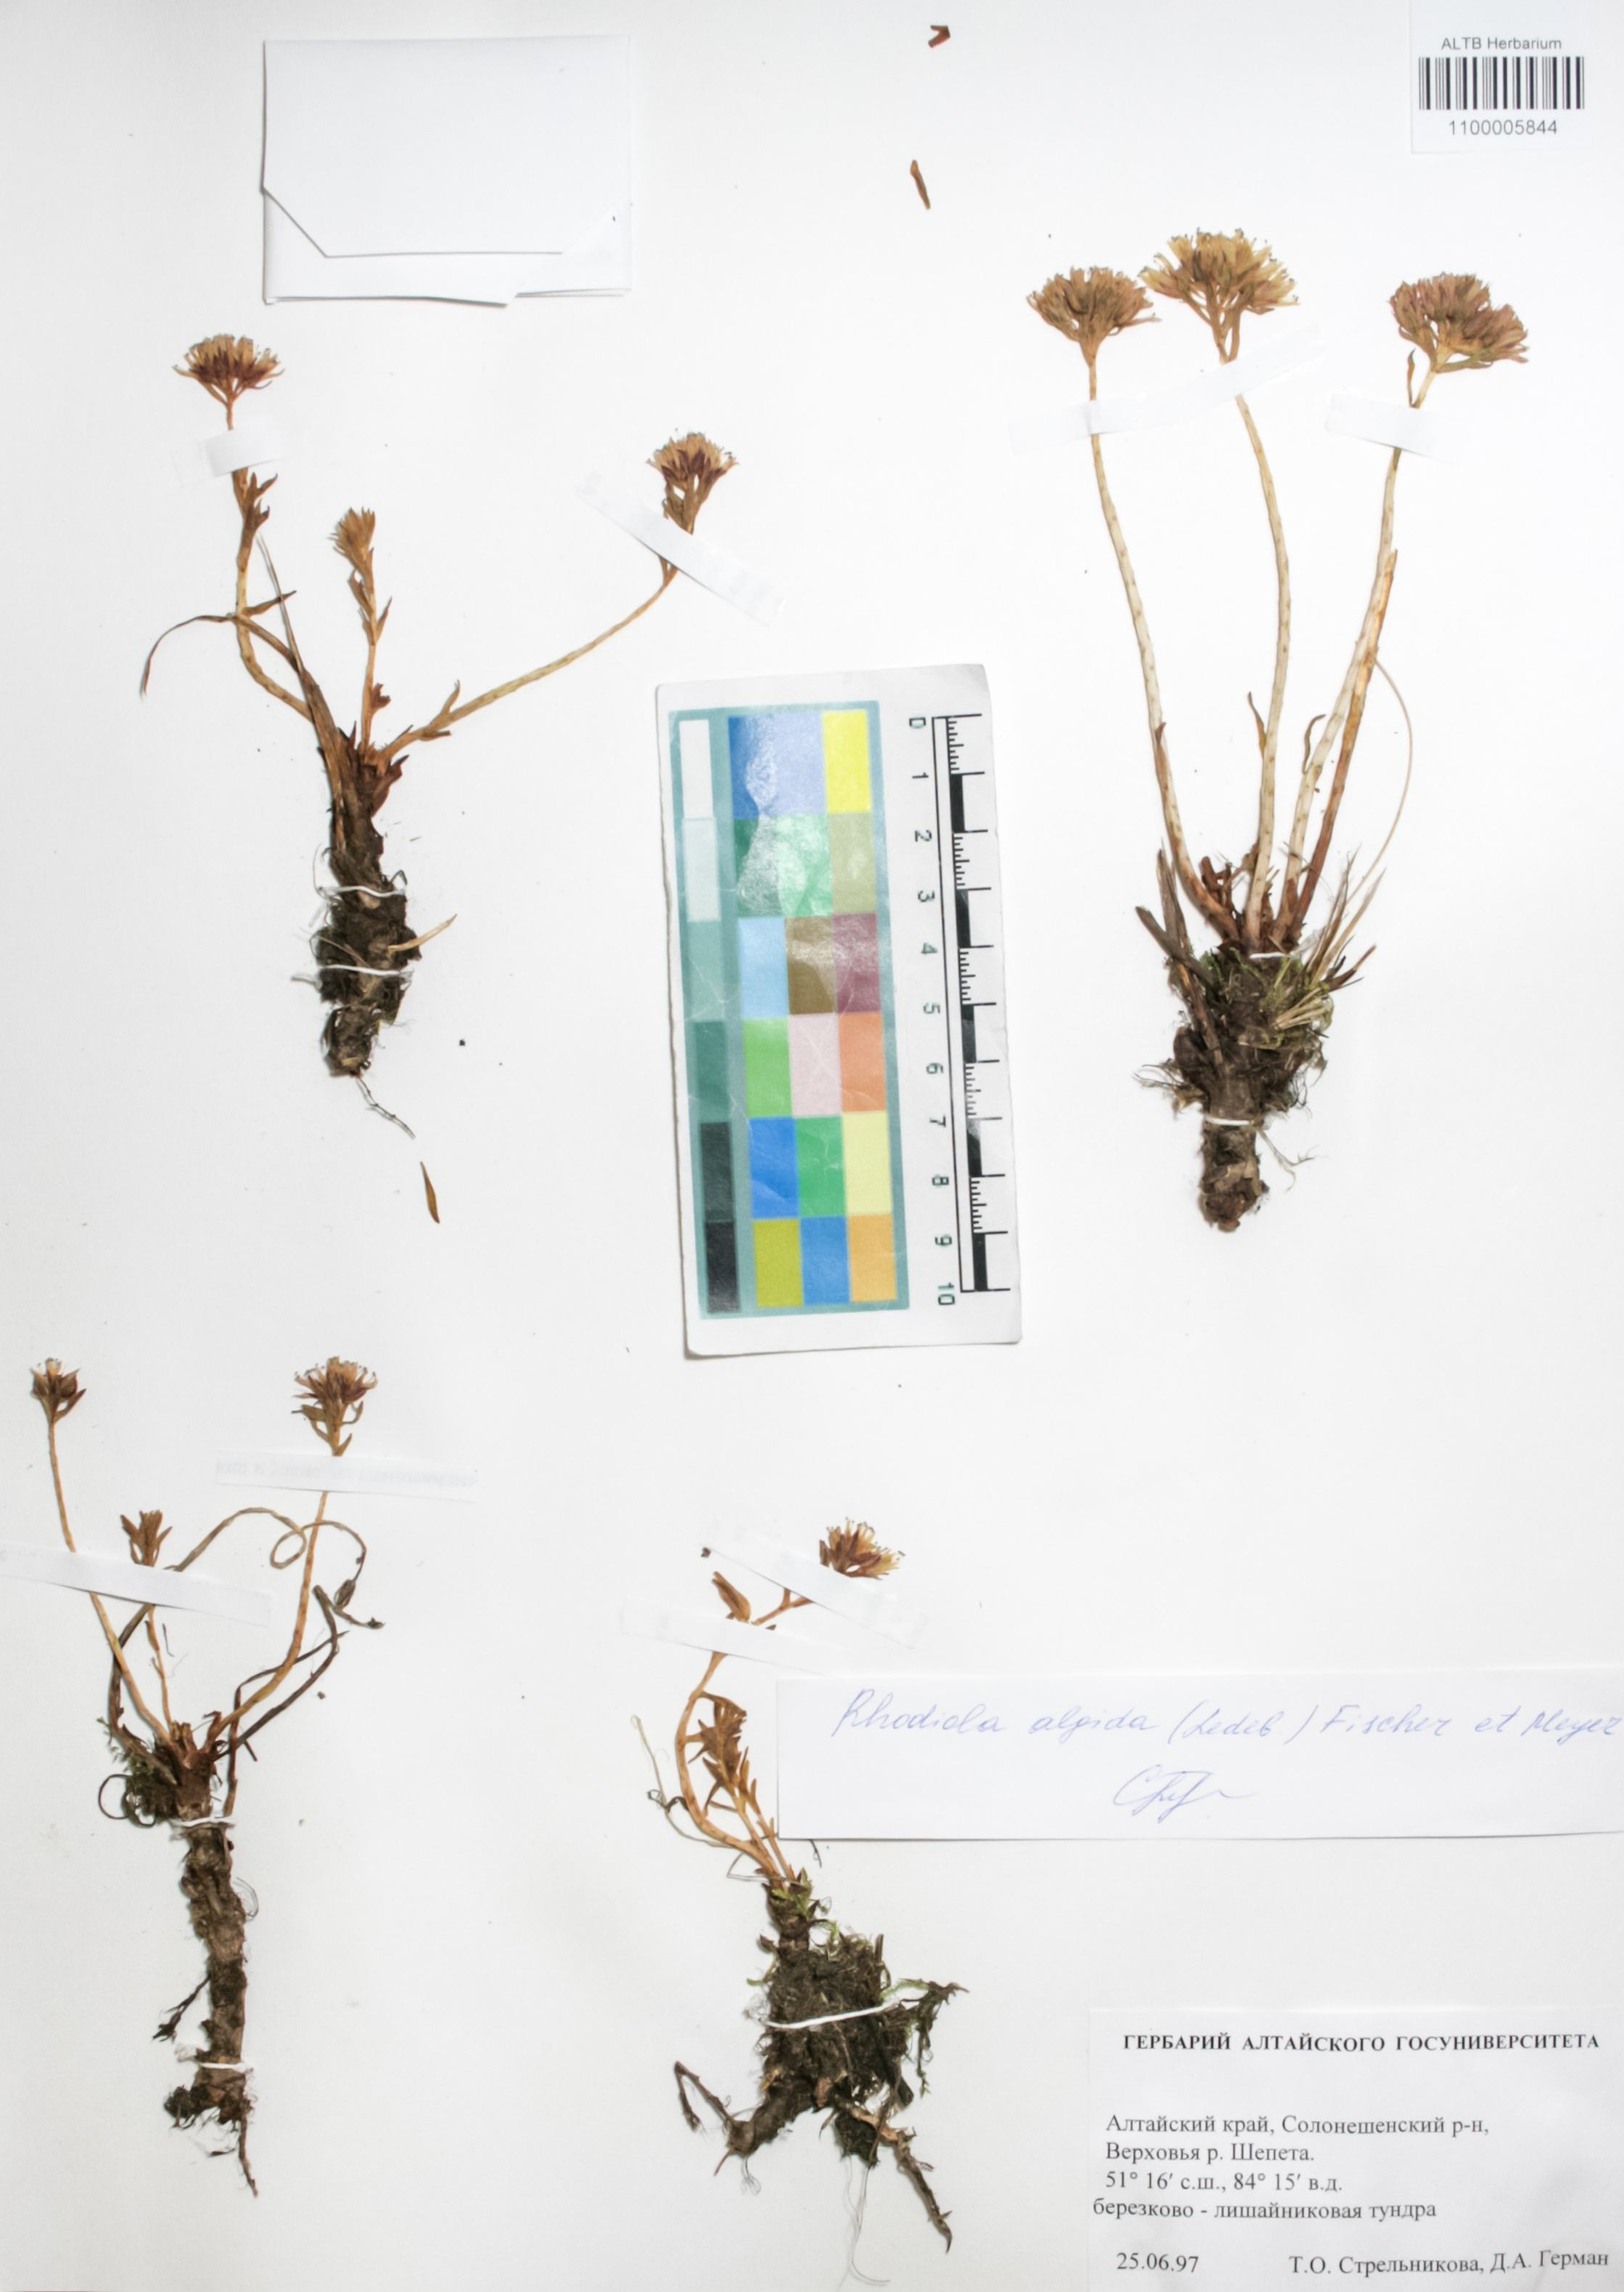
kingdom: Plantae
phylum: Tracheophyta
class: Magnoliopsida
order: Saxifragales
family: Crassulaceae
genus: Rhodiola
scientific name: Rhodiola algida
